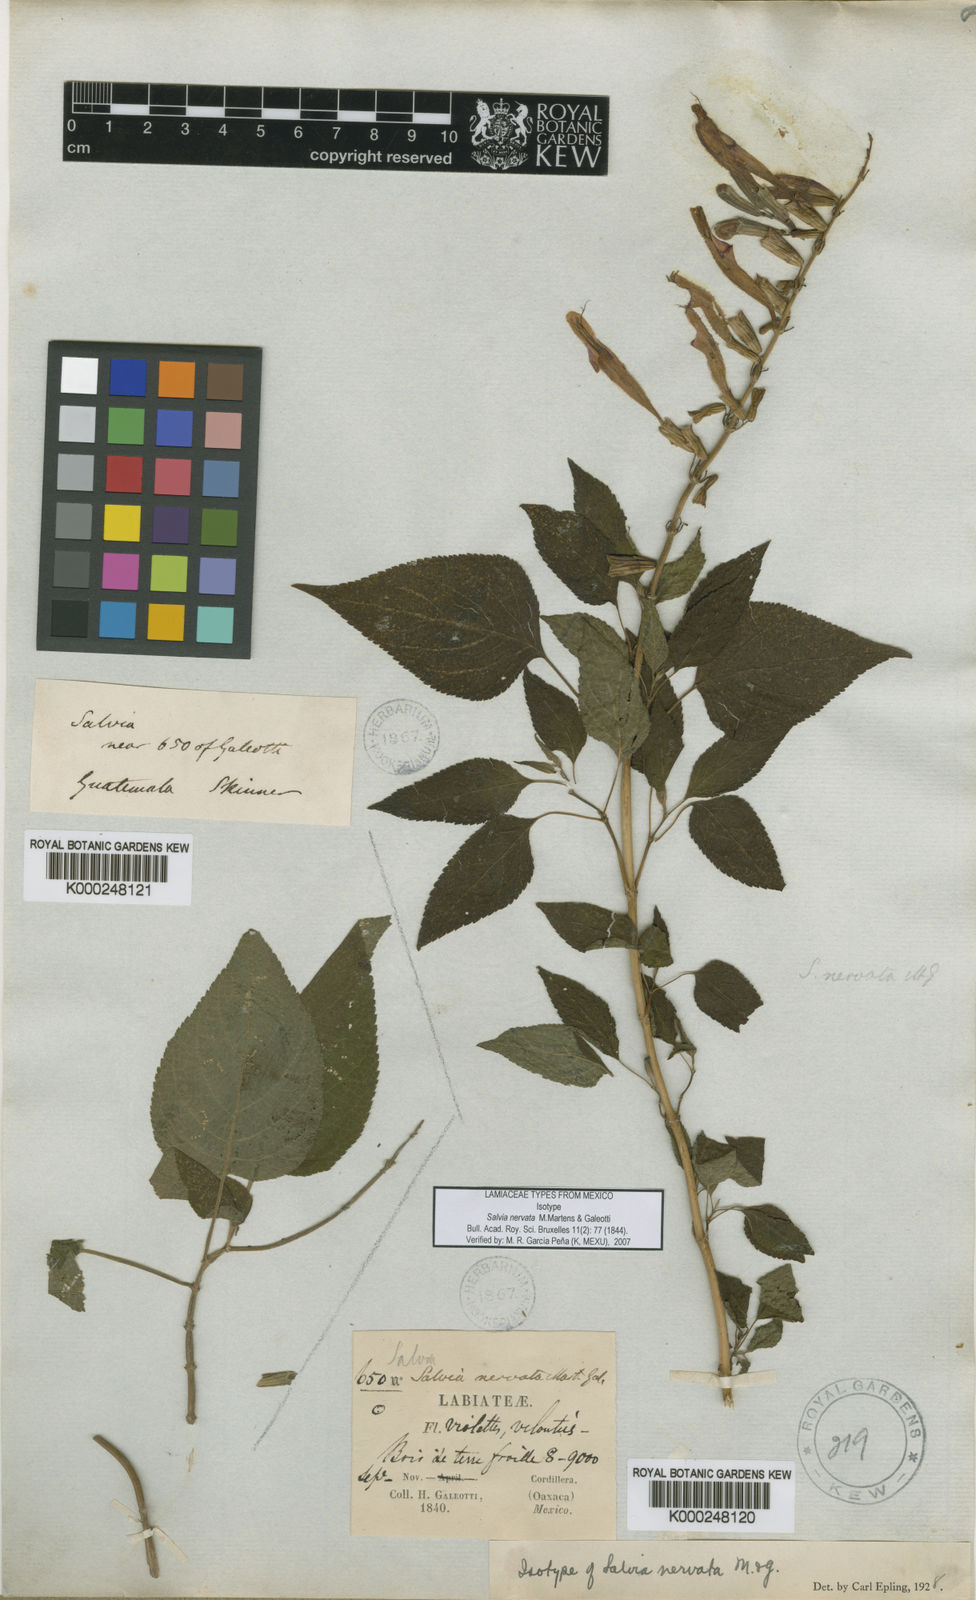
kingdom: Plantae
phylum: Tracheophyta
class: Magnoliopsida
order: Lamiales
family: Lamiaceae
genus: Salvia
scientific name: Salvia nervata
